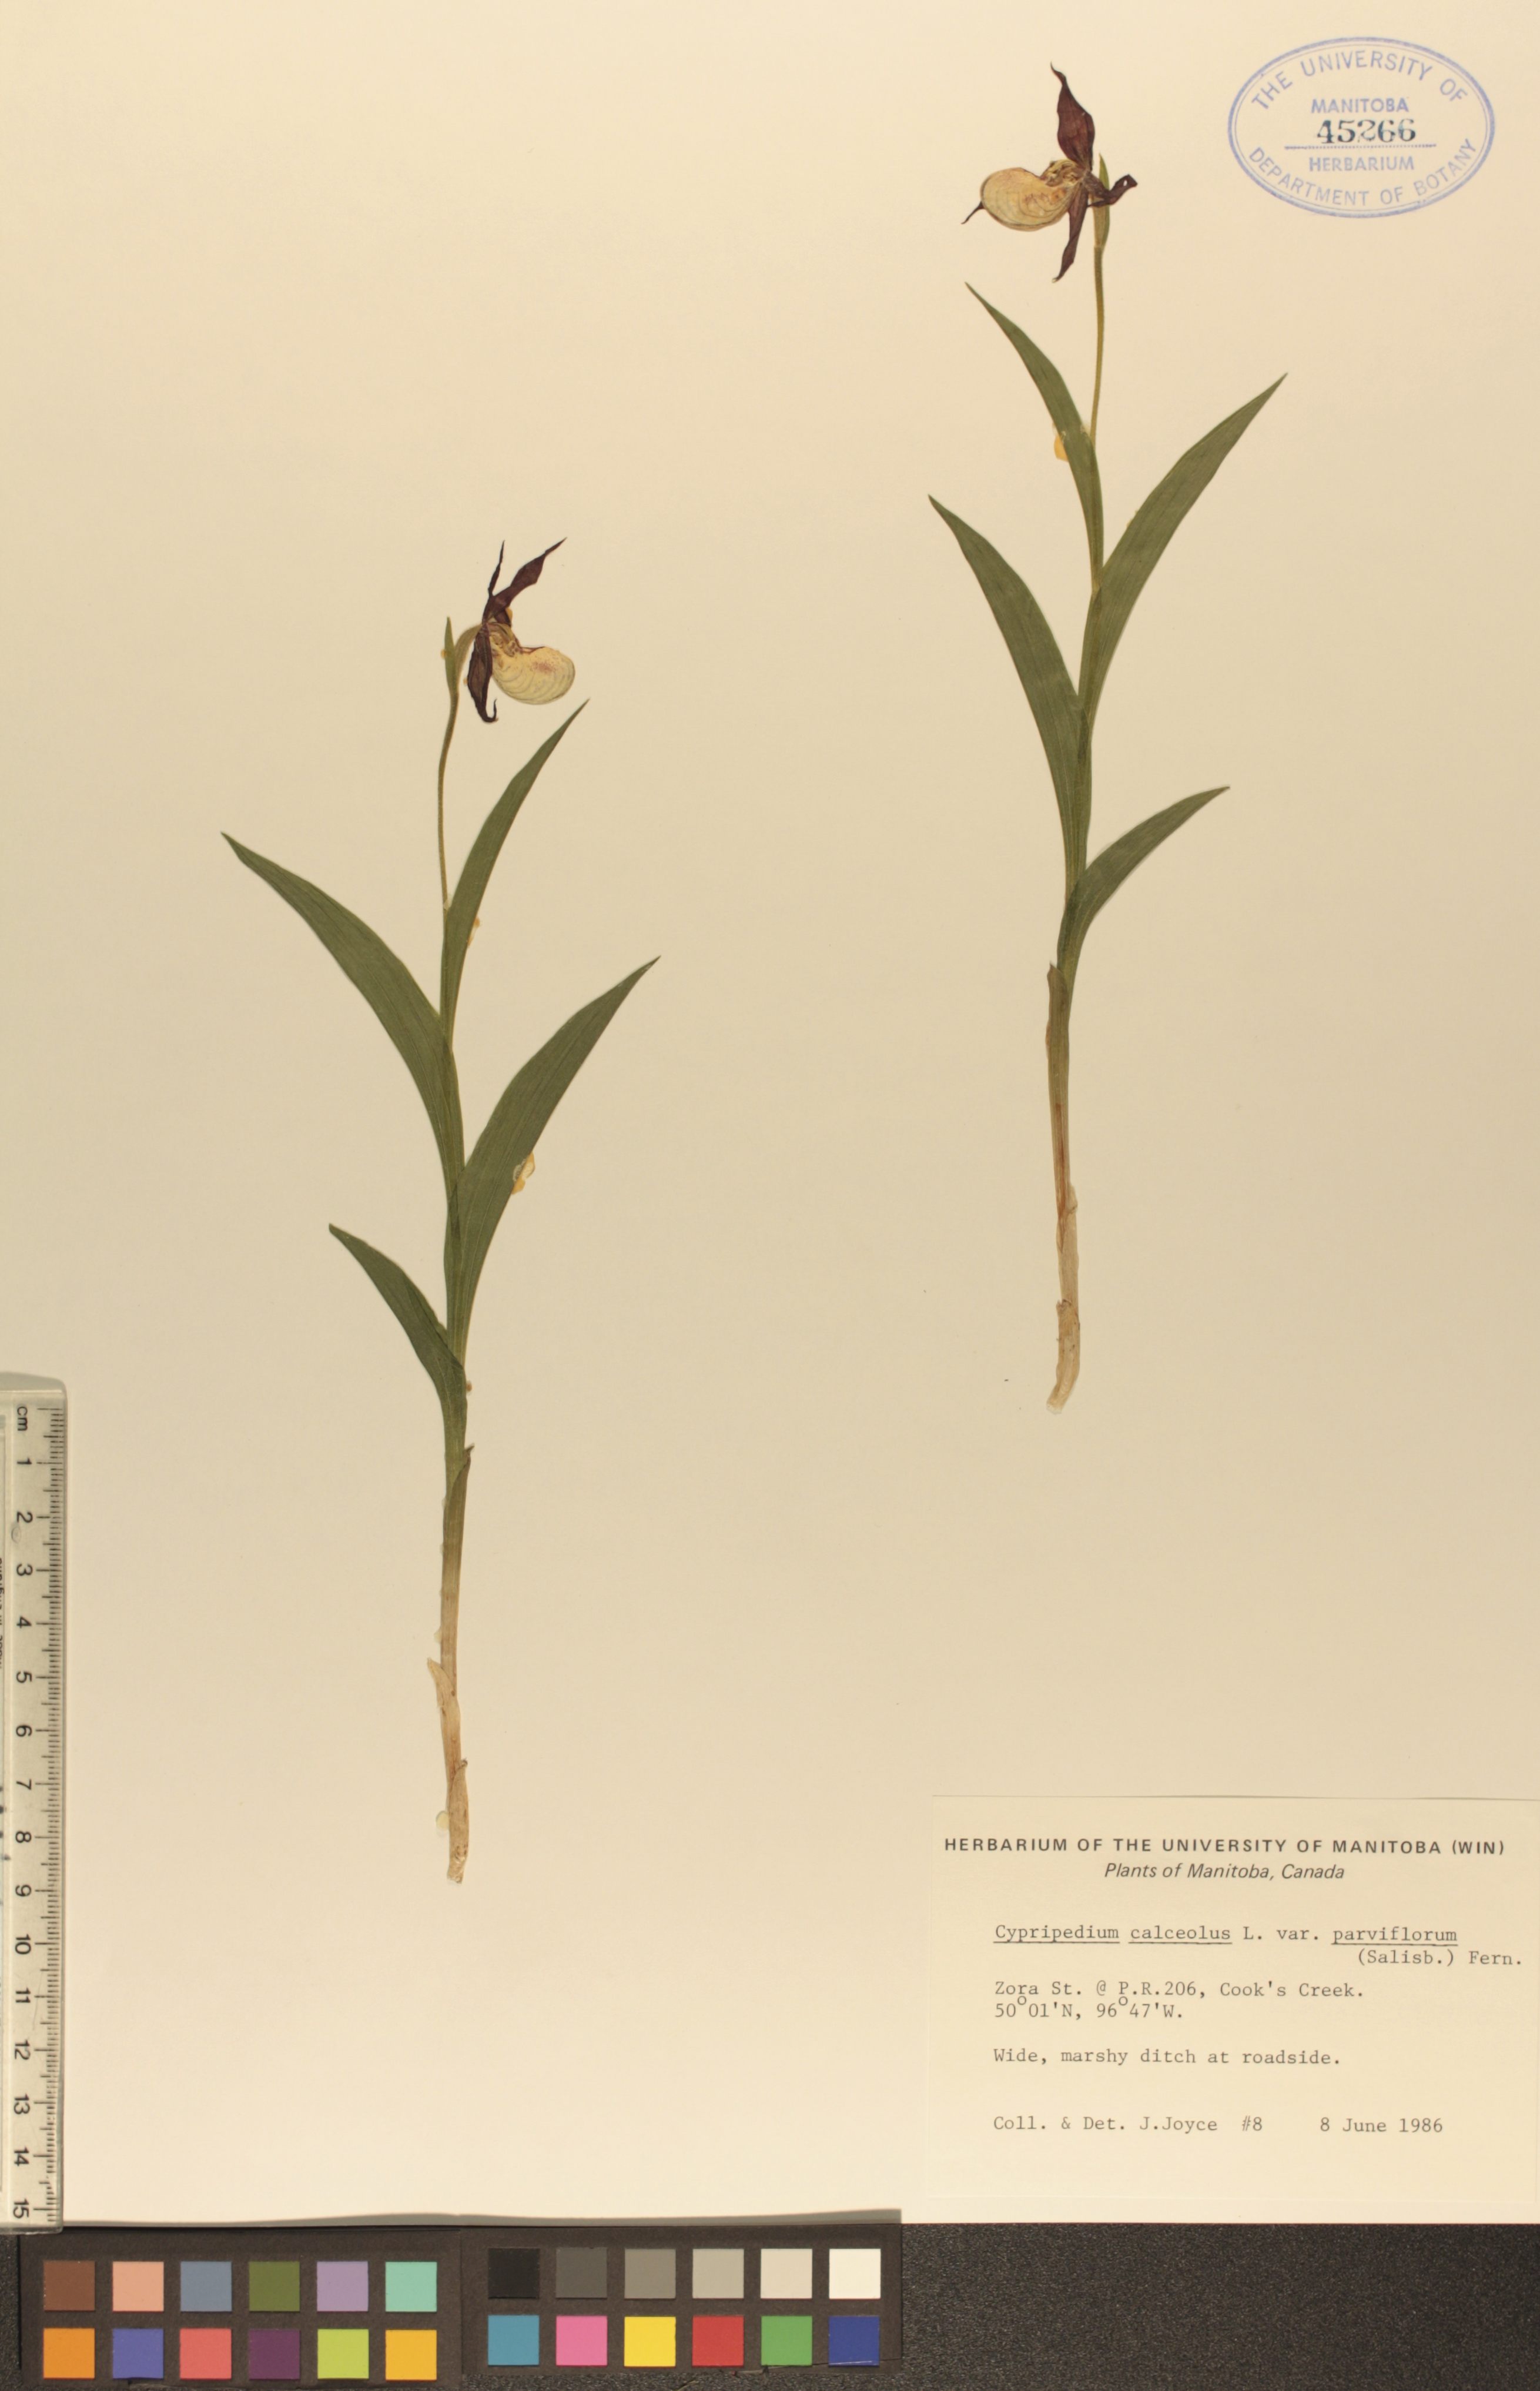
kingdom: Plantae
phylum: Tracheophyta
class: Liliopsida
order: Asparagales
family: Orchidaceae
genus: Cypripedium
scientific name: Cypripedium parviflorum
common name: American yellow lady's-slipper
